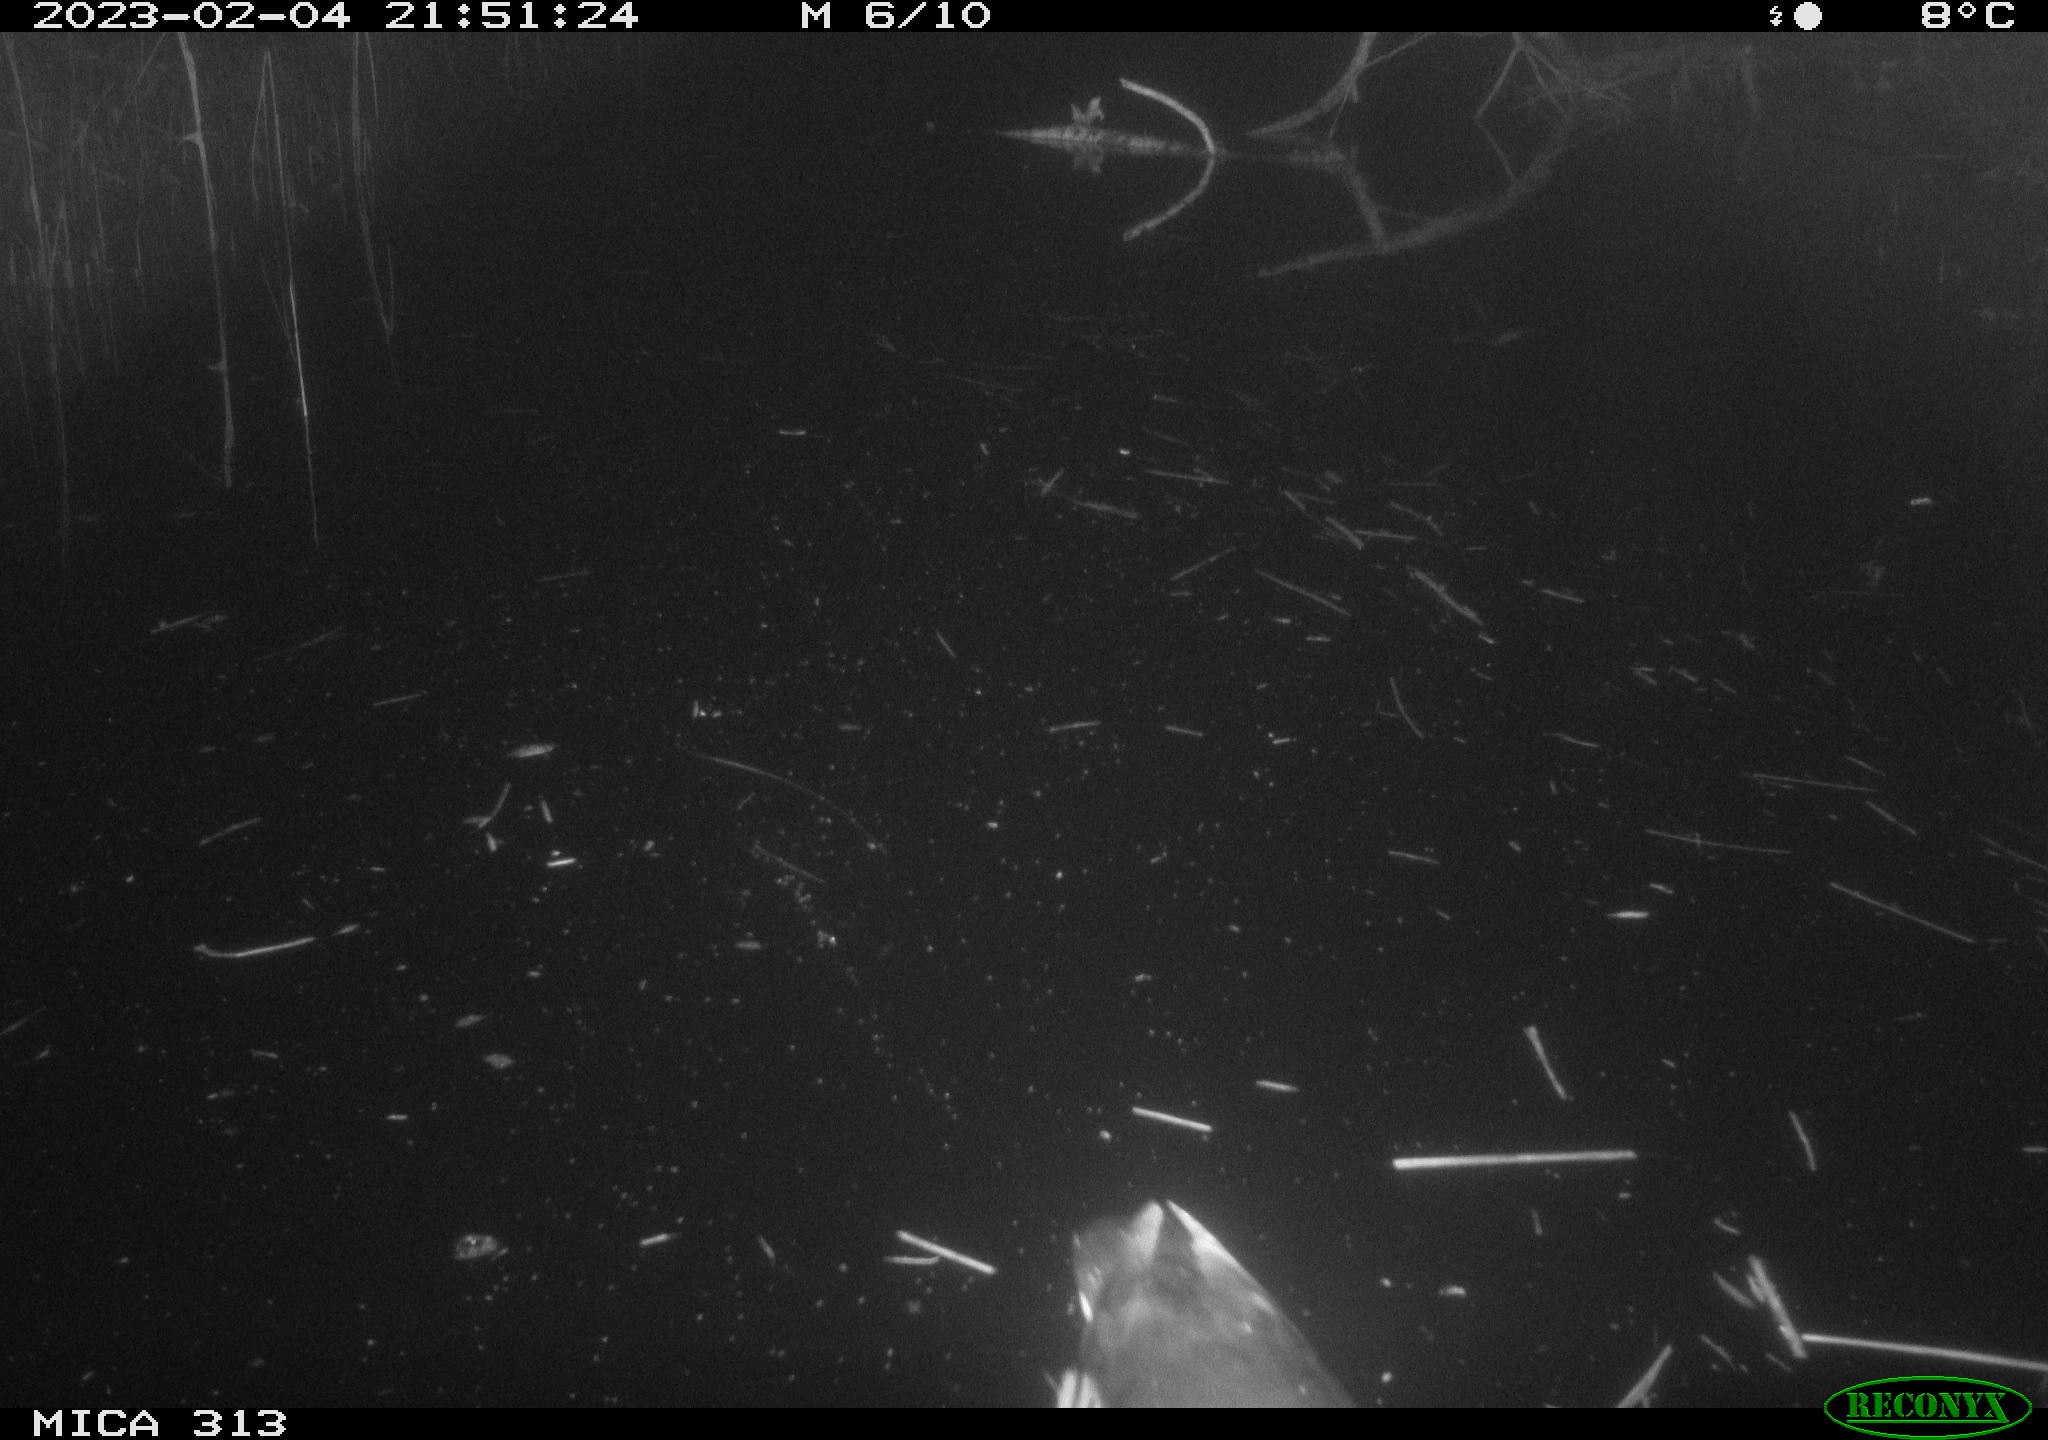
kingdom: Animalia
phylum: Chordata
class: Aves
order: Gruiformes
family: Rallidae
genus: Gallinula
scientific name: Gallinula chloropus
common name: Common moorhen
